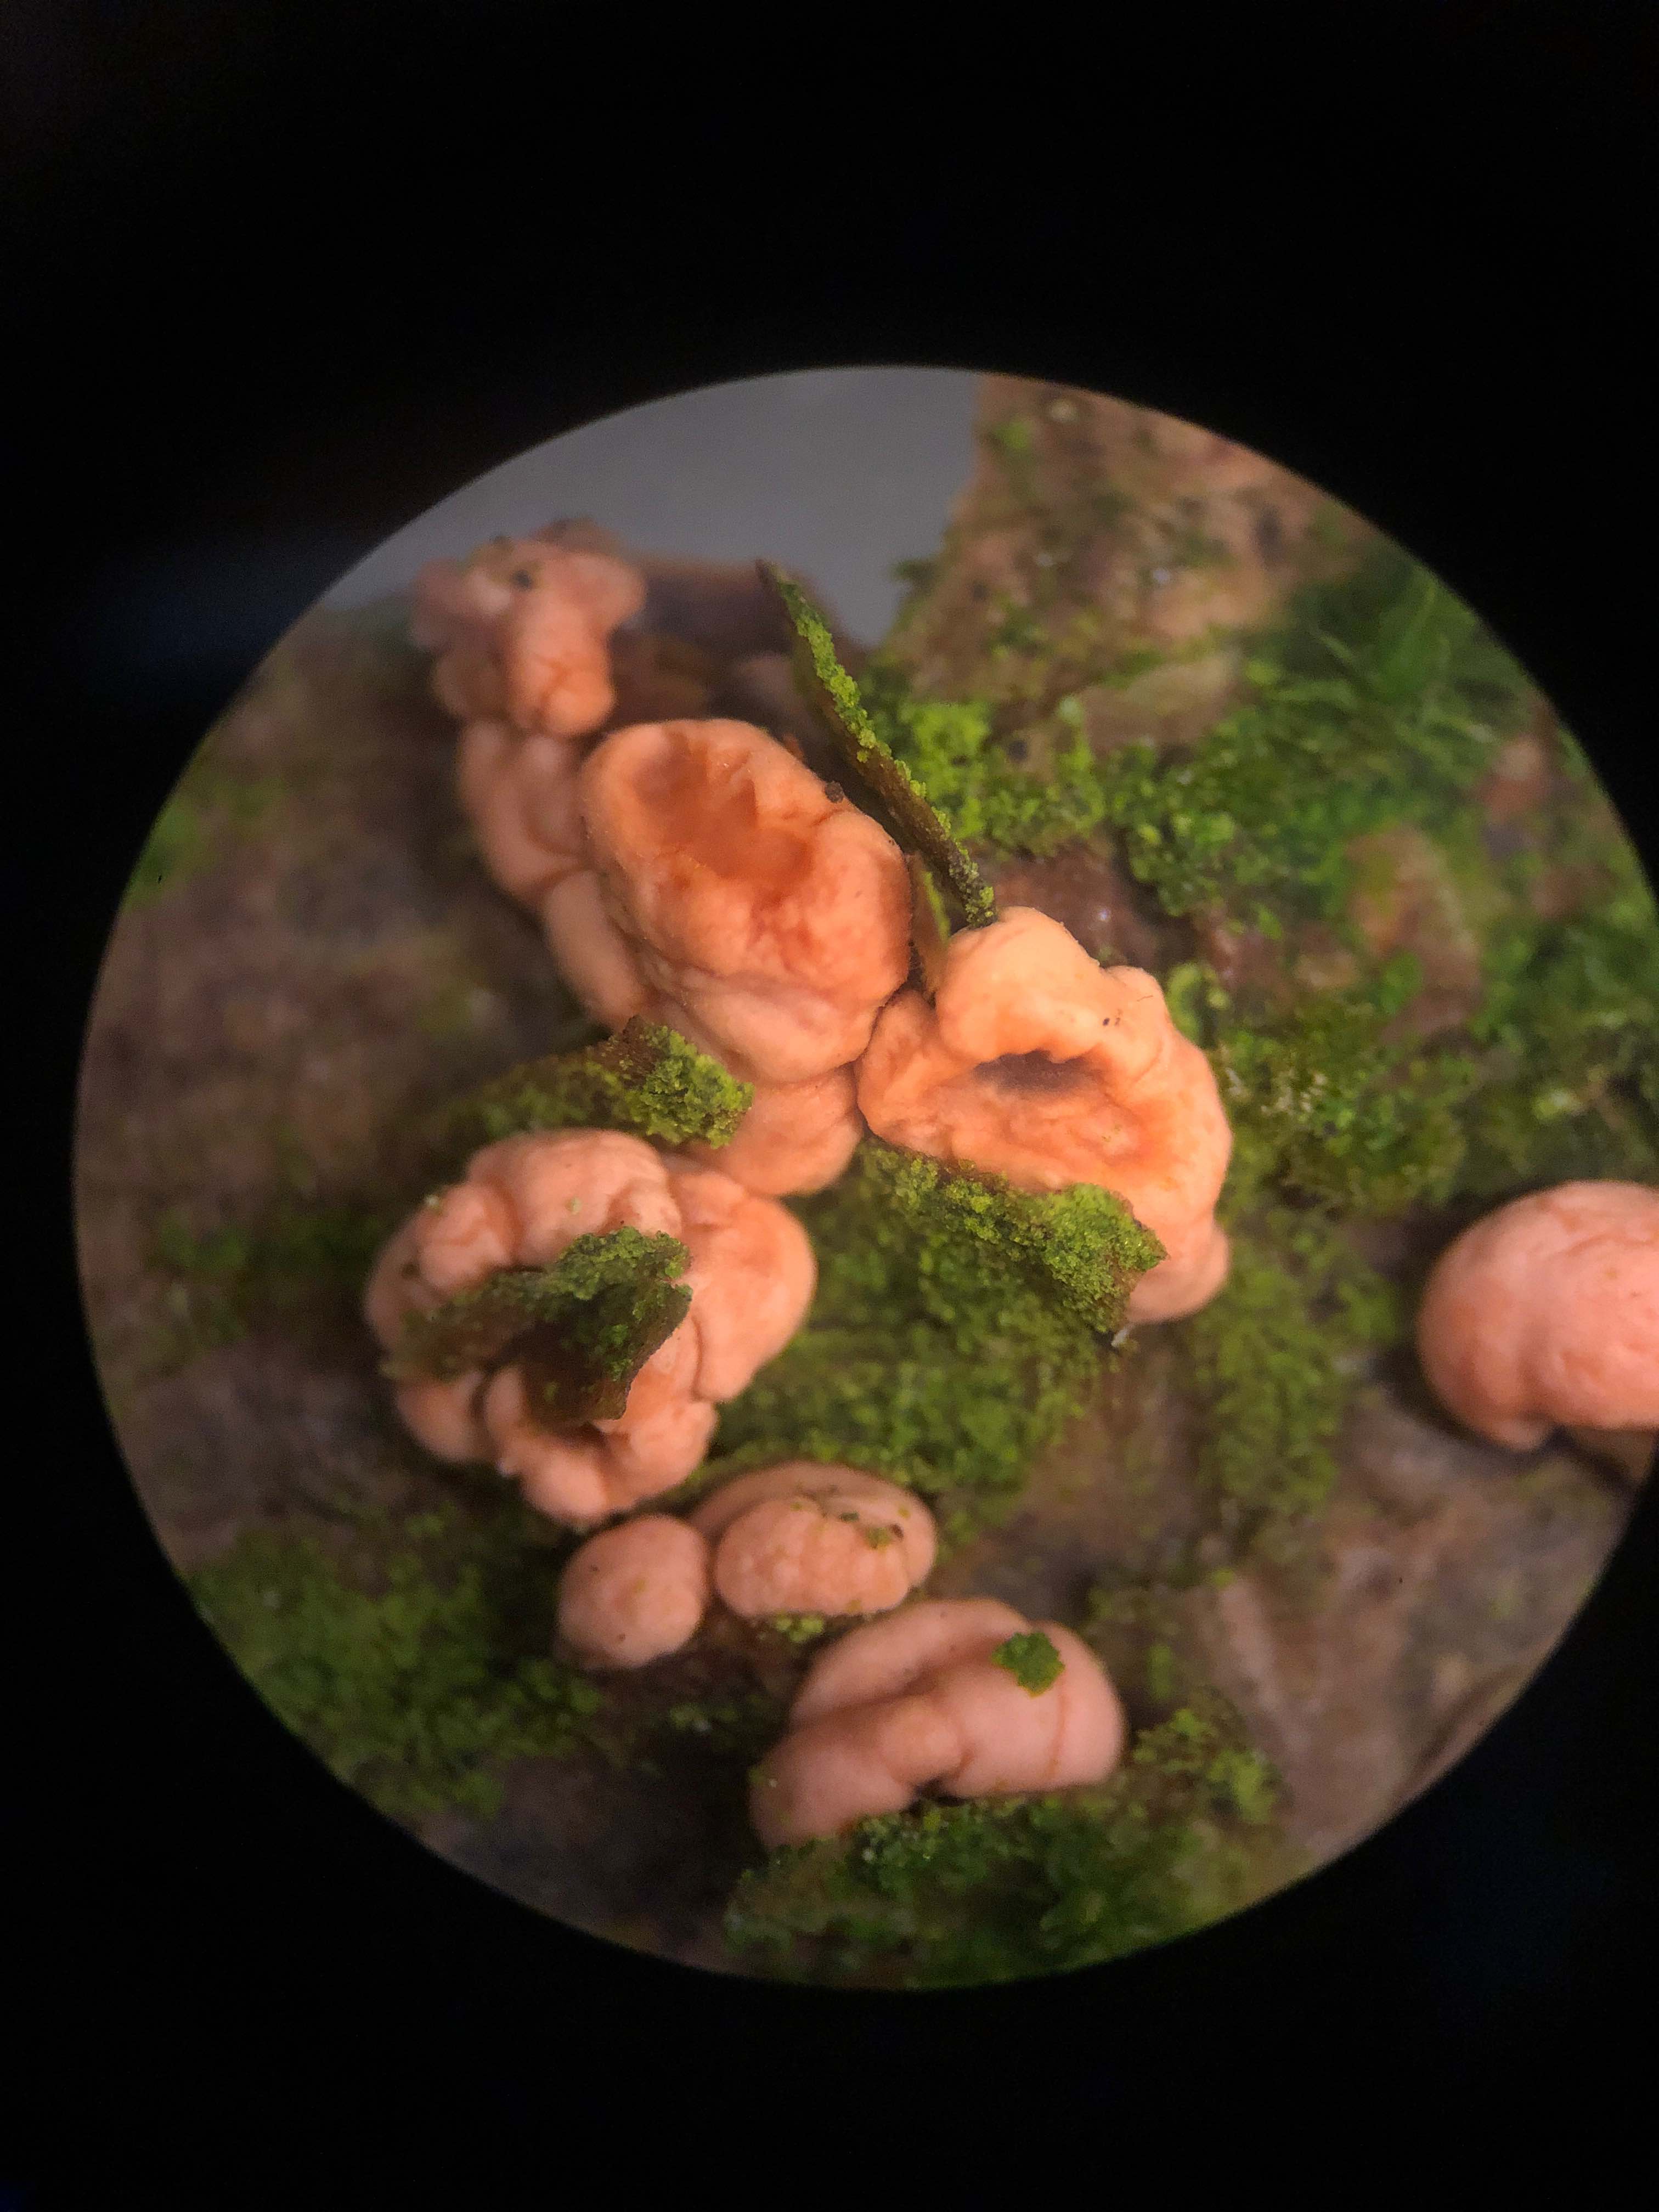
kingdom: Fungi
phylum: Ascomycota
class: Sordariomycetes
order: Hypocreales
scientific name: Hypocreales
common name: kødkerneordenen
